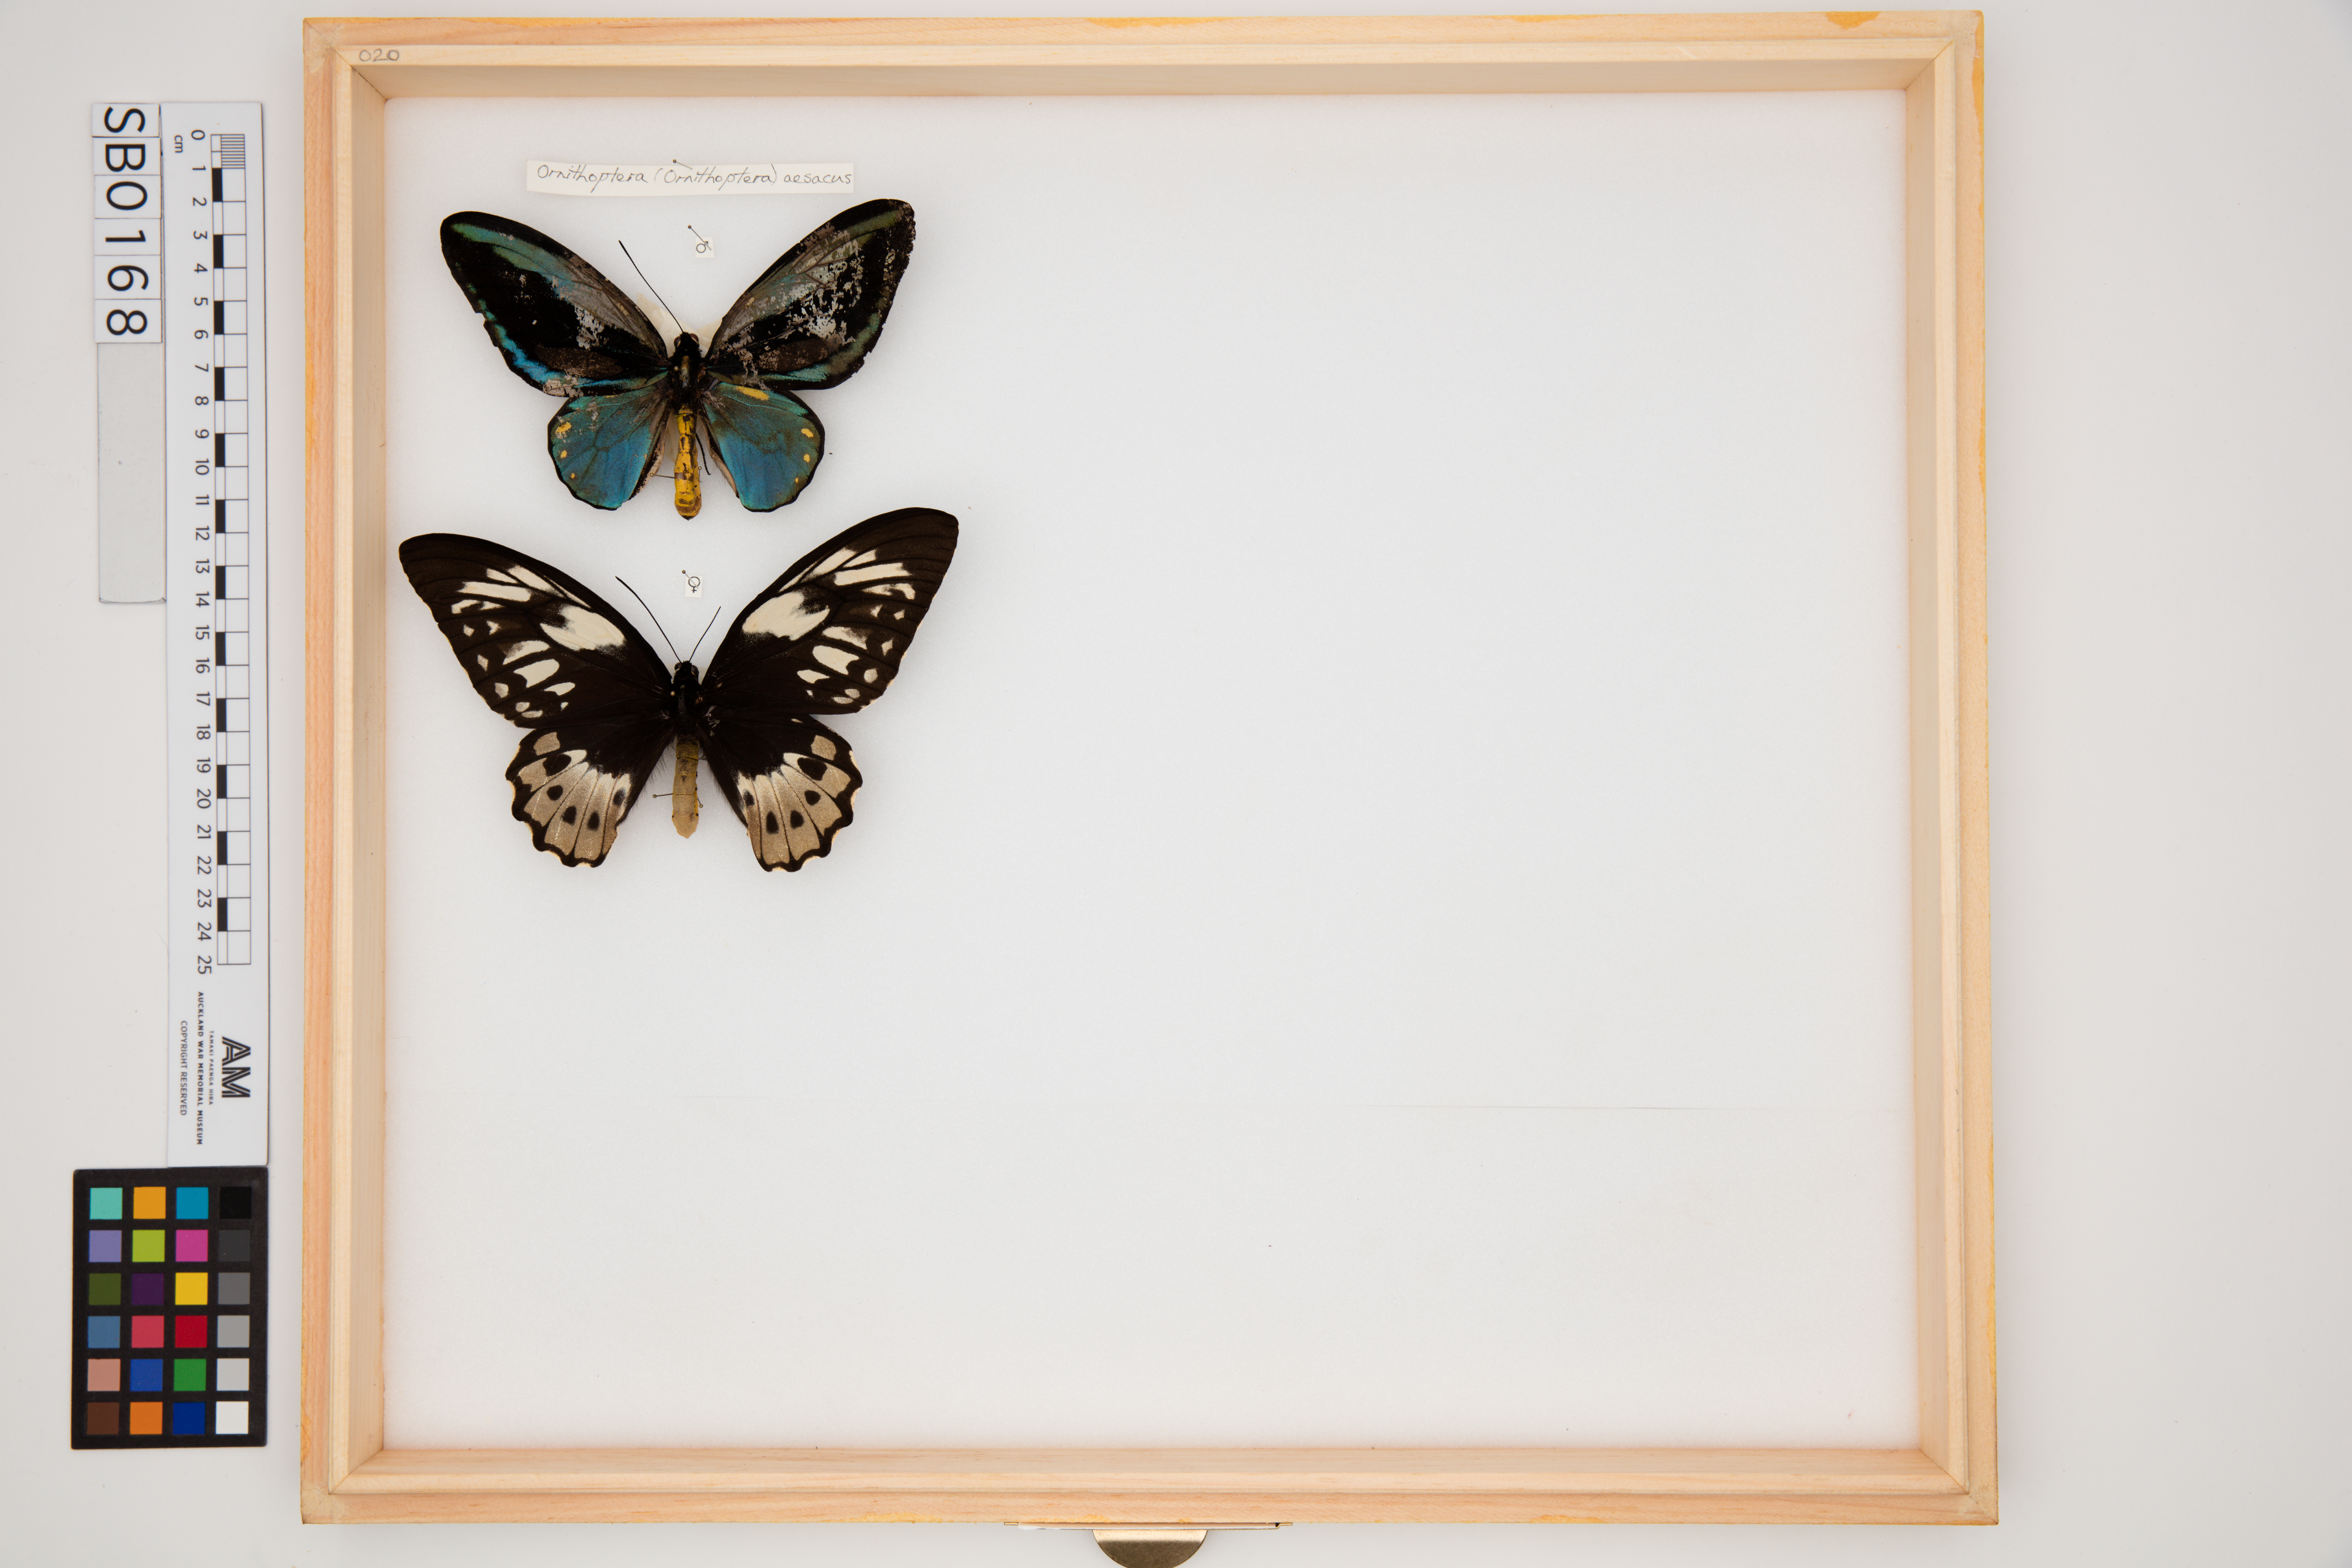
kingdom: Animalia
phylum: Arthropoda
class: Insecta
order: Lepidoptera
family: Papilionidae
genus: Ornithoptera
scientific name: Ornithoptera aesacus
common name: Obi island birdwing
